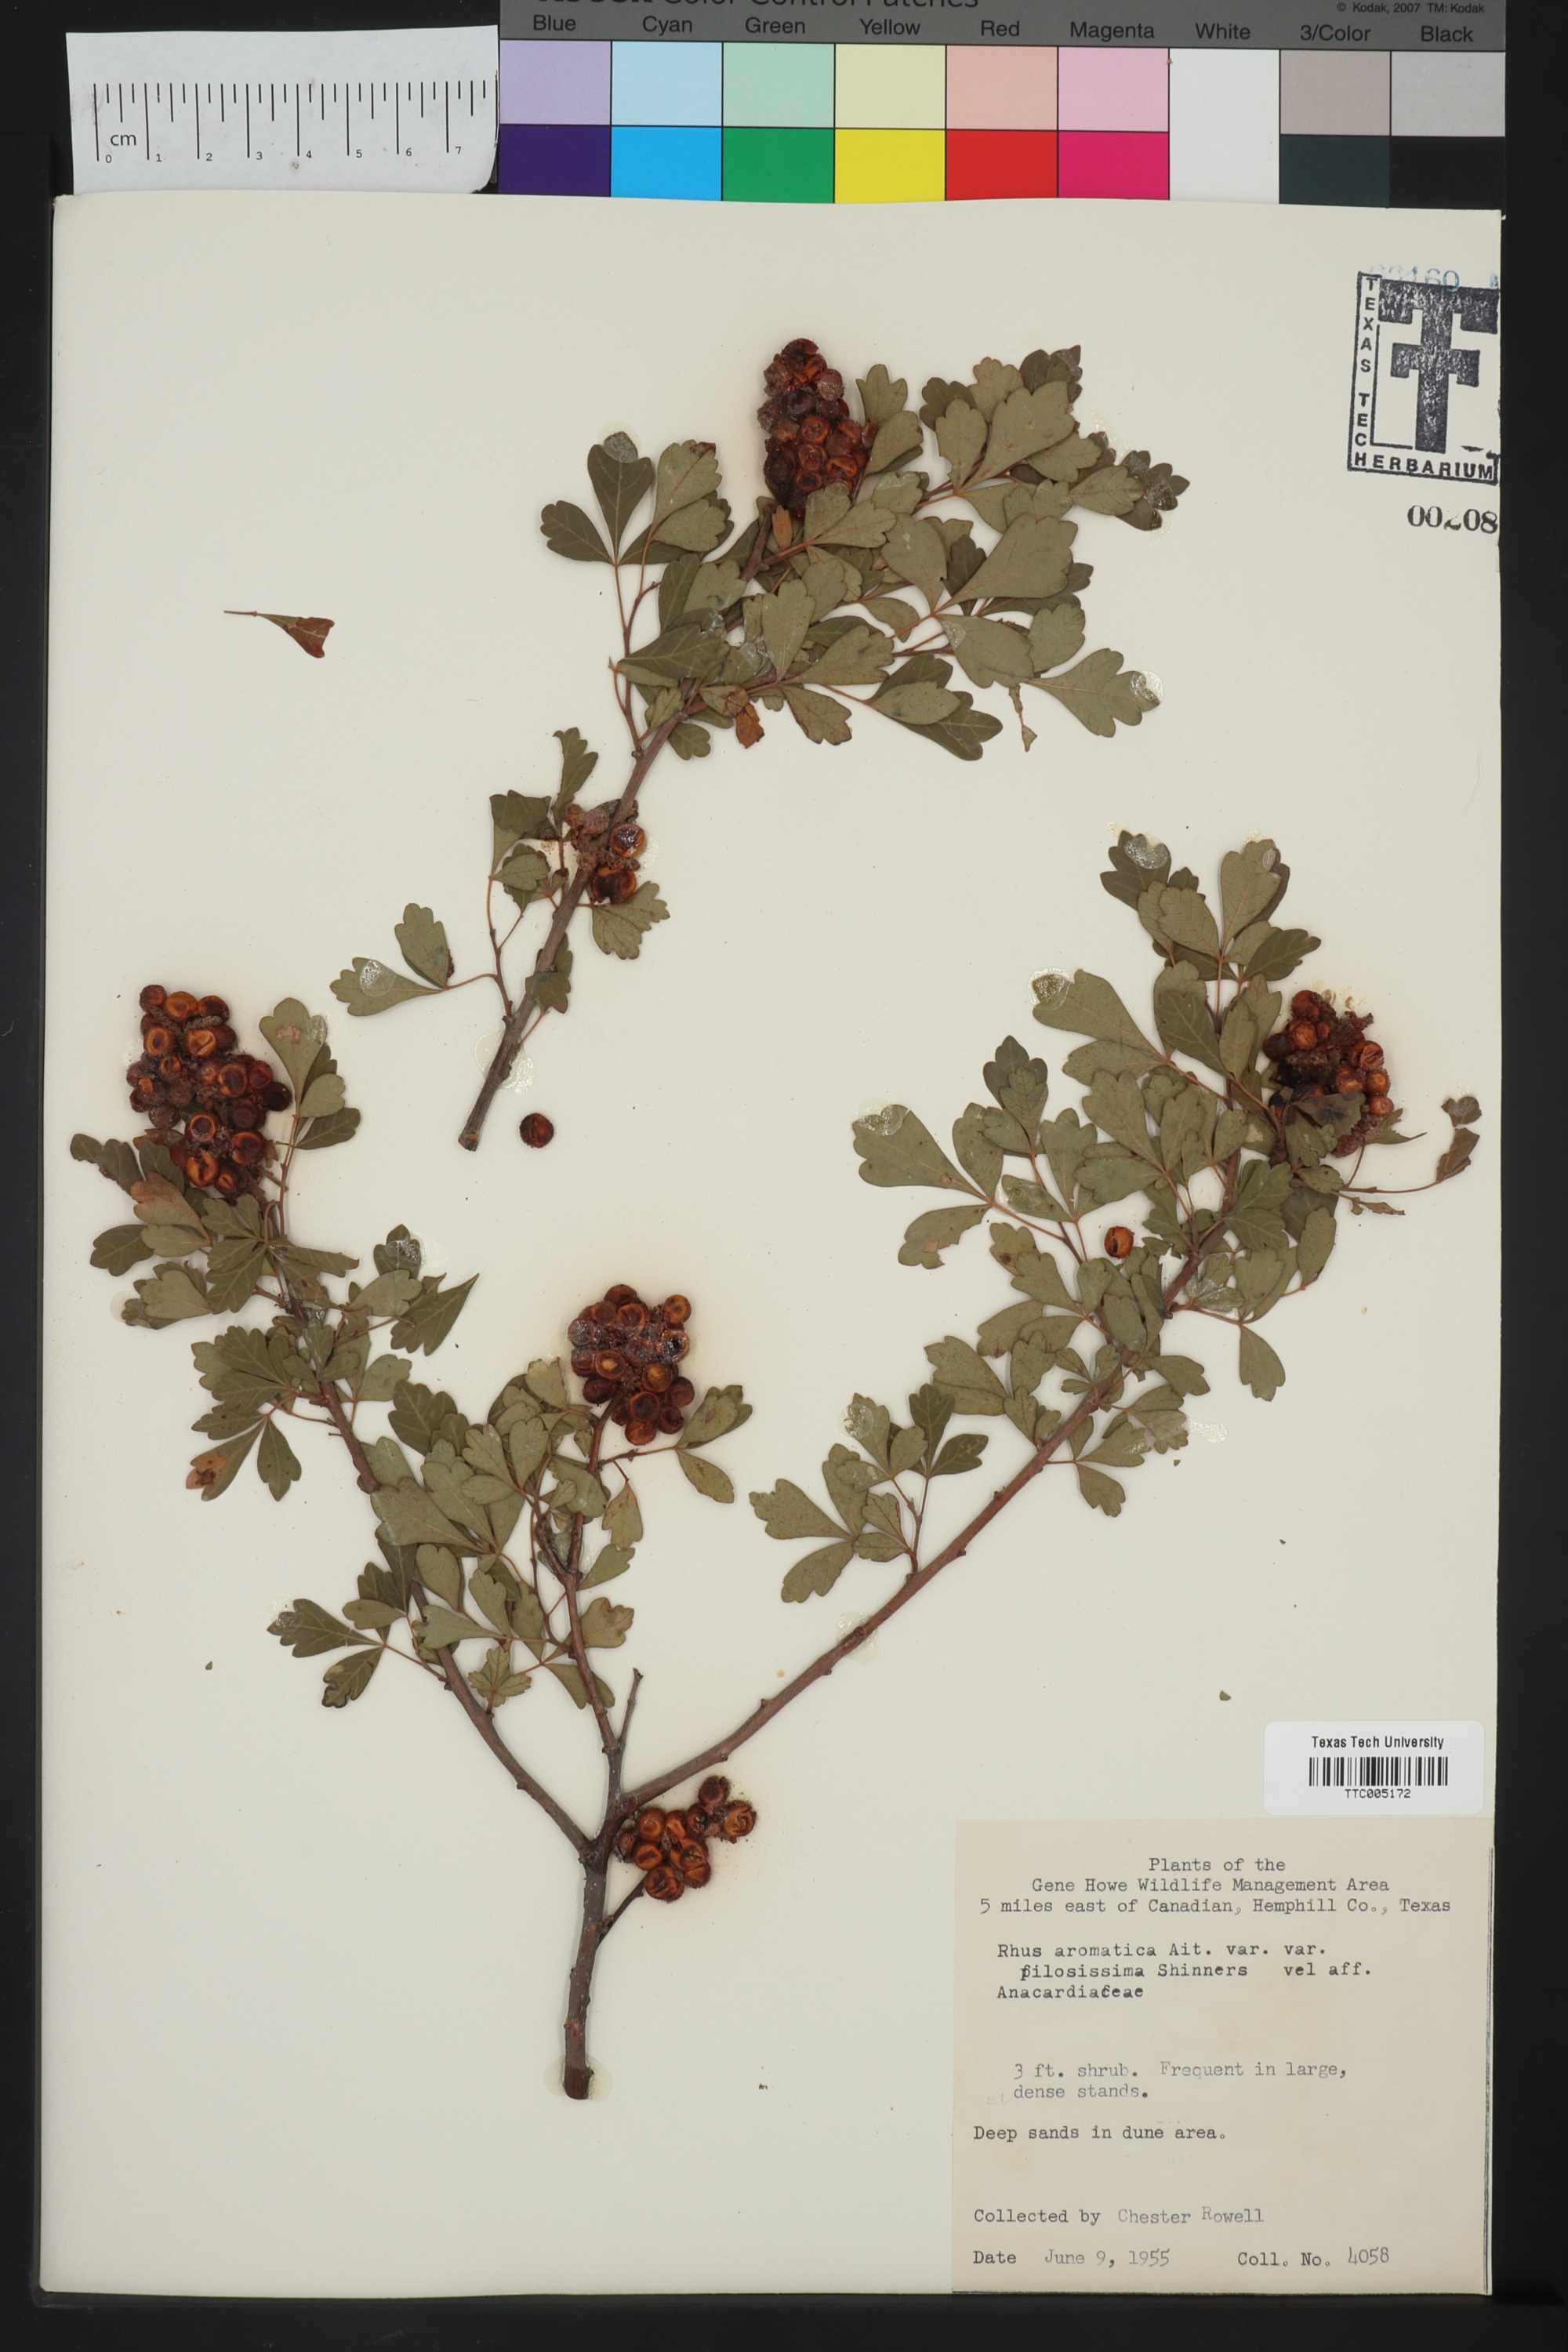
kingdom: Plantae
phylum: Tracheophyta
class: Magnoliopsida
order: Sapindales
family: Anacardiaceae
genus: Rhus
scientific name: Rhus trilobata
